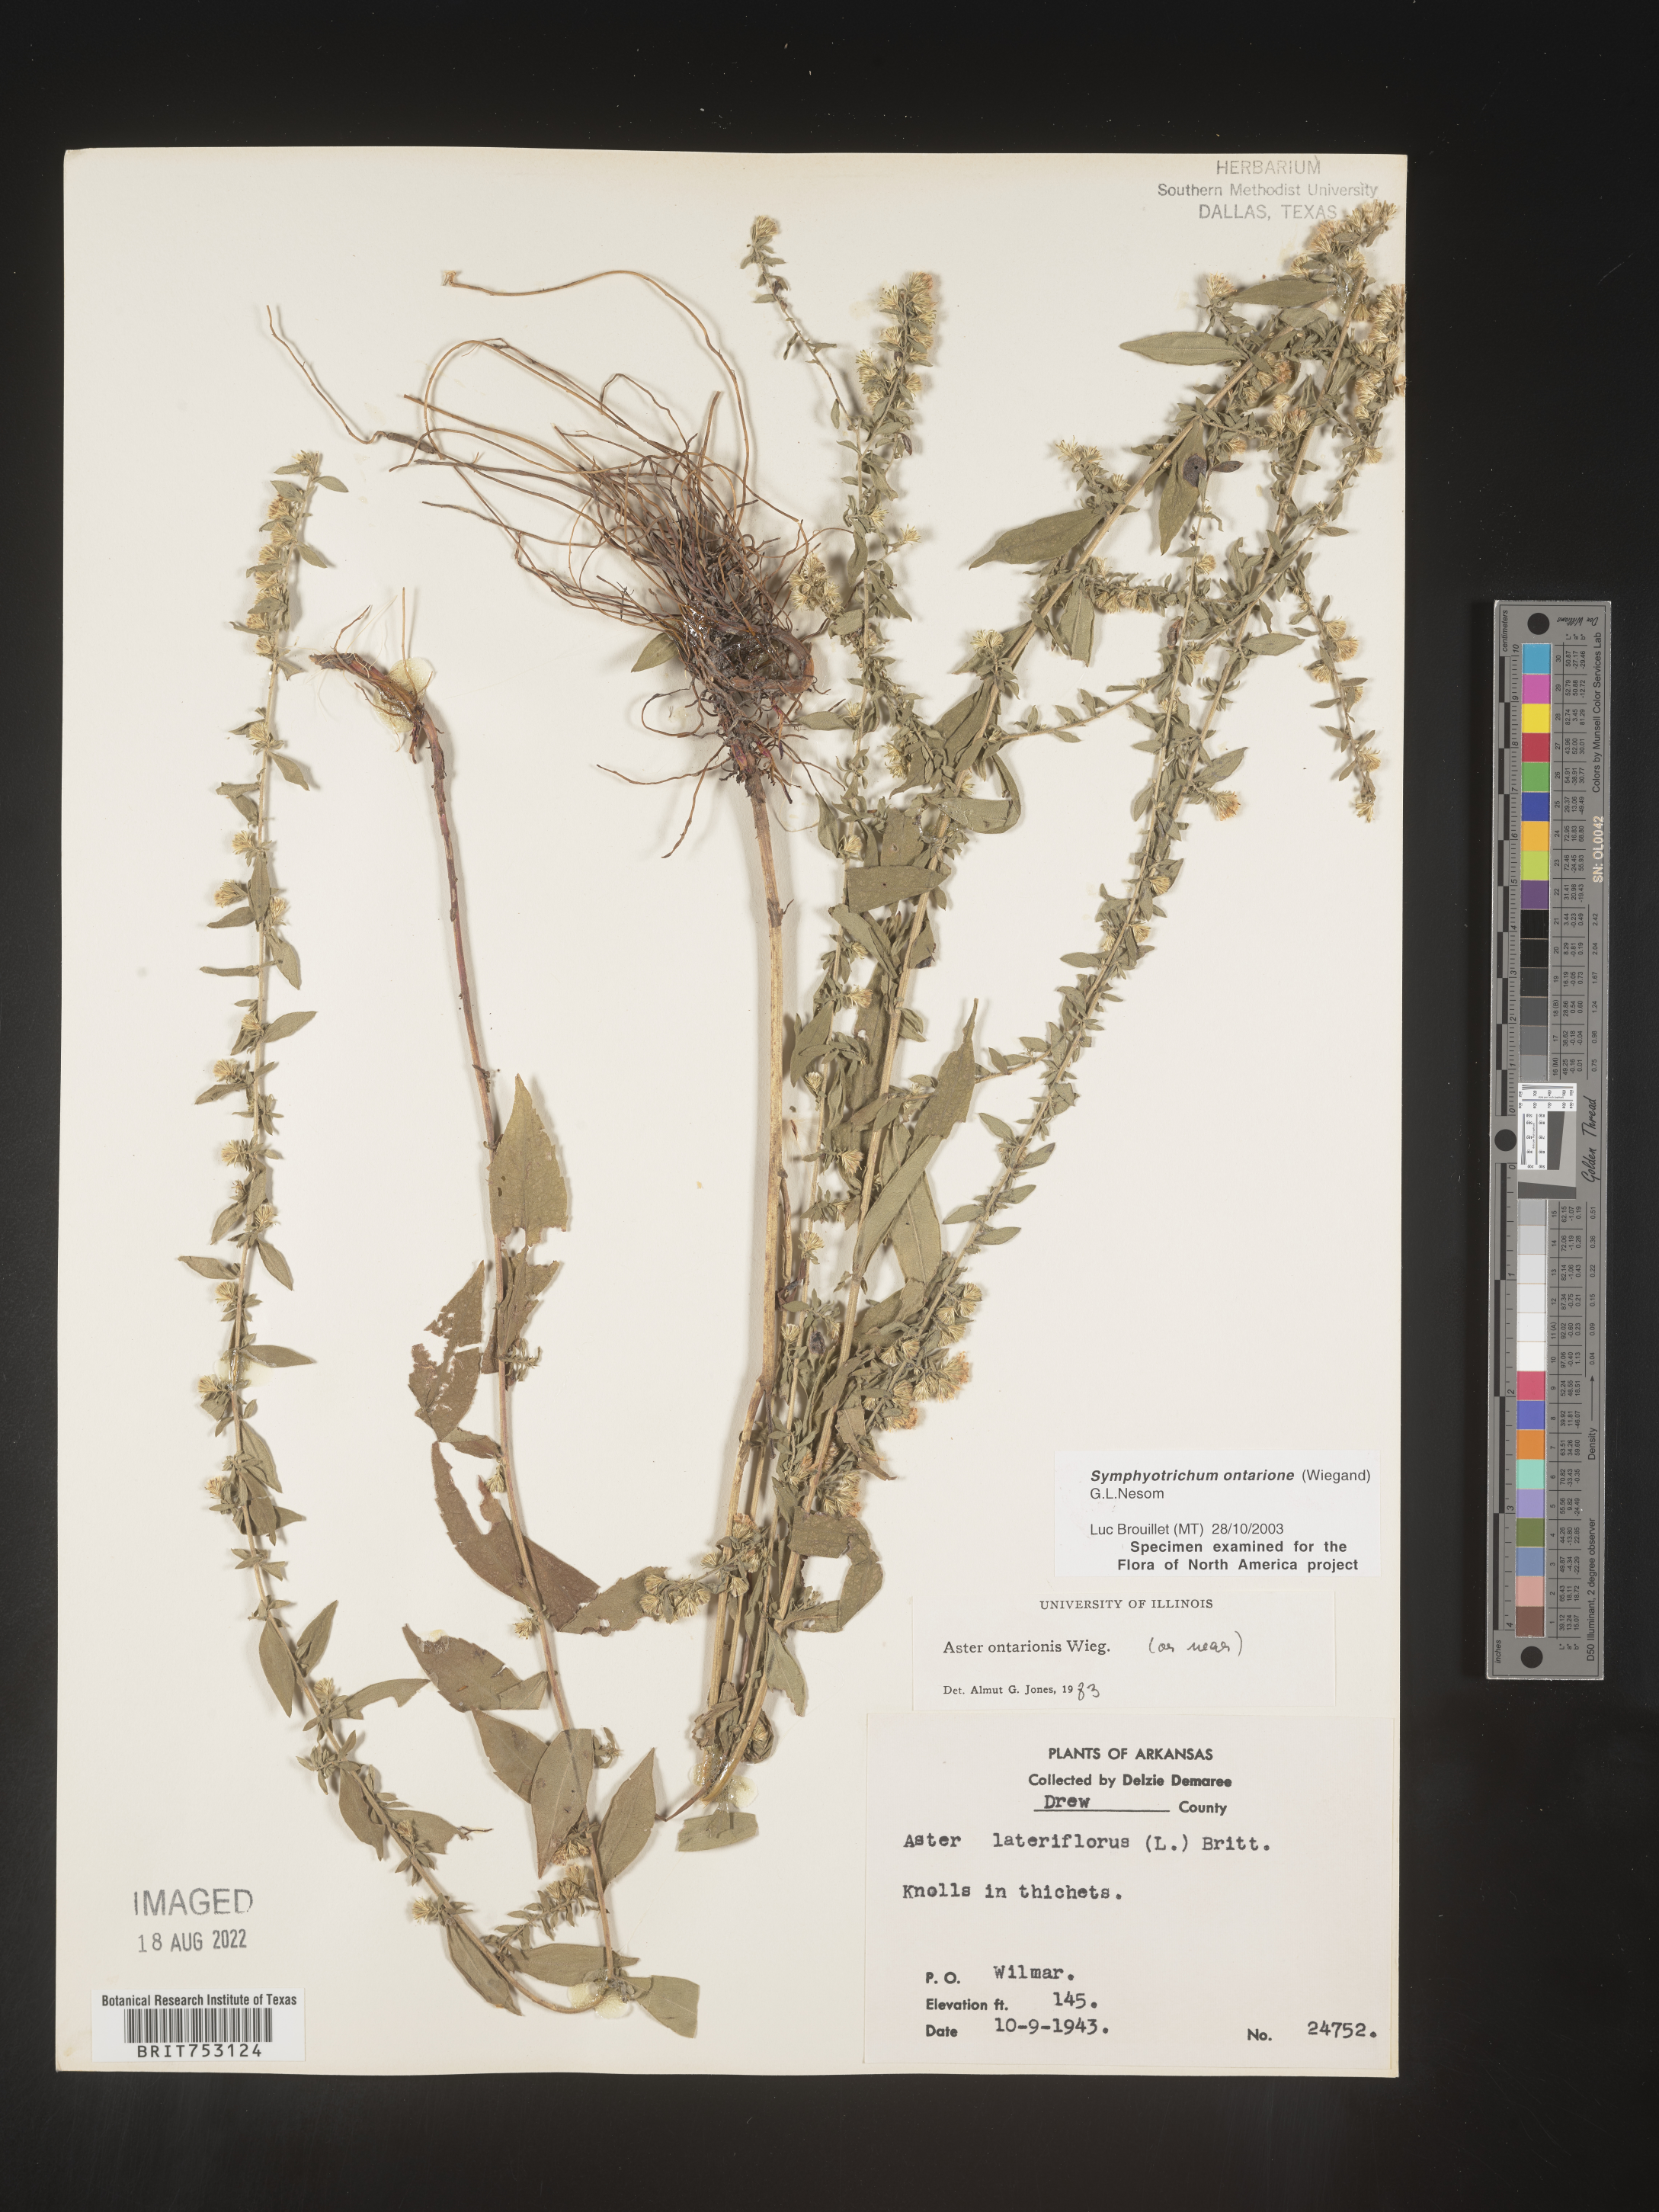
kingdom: Plantae
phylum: Tracheophyta
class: Magnoliopsida
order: Asterales
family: Asteraceae
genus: Symphyotrichum
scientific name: Symphyotrichum ontarionis
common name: Bottomland aster
